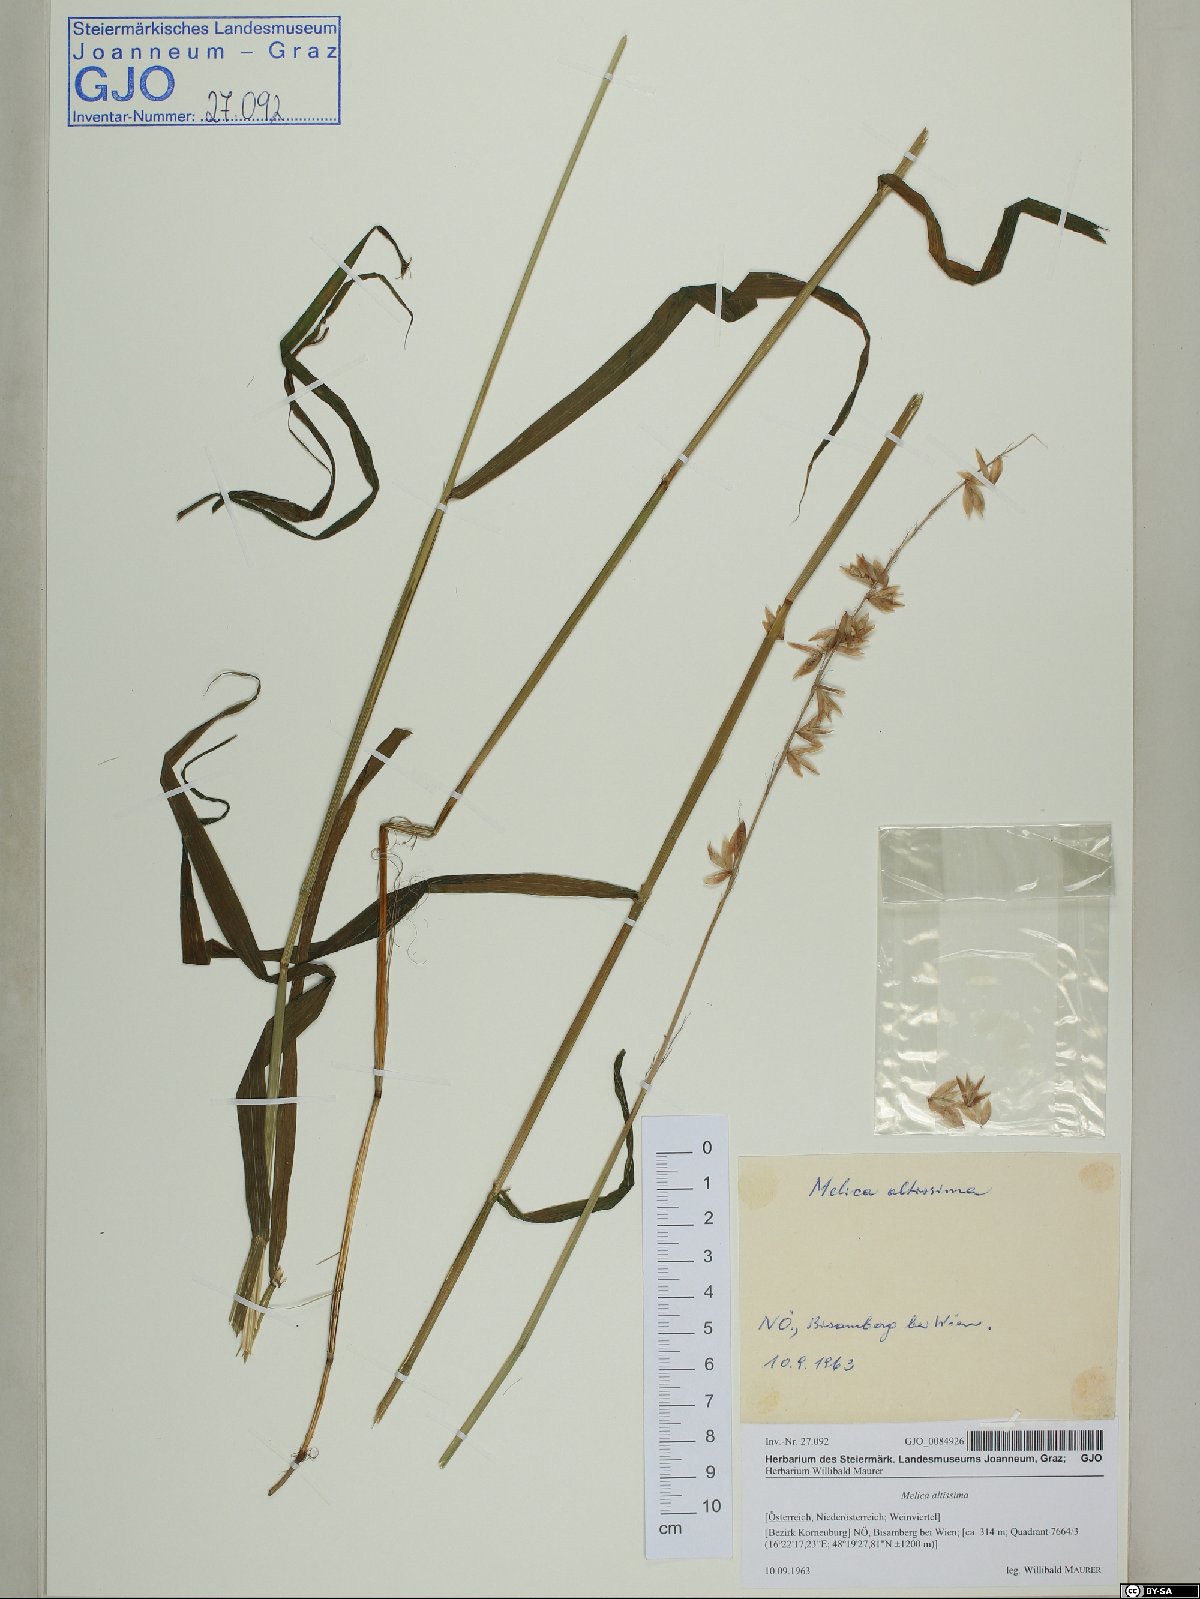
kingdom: Plantae
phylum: Tracheophyta
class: Liliopsida
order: Poales
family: Poaceae
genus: Melica
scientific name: Melica altissima
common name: Siberian melicgrass
